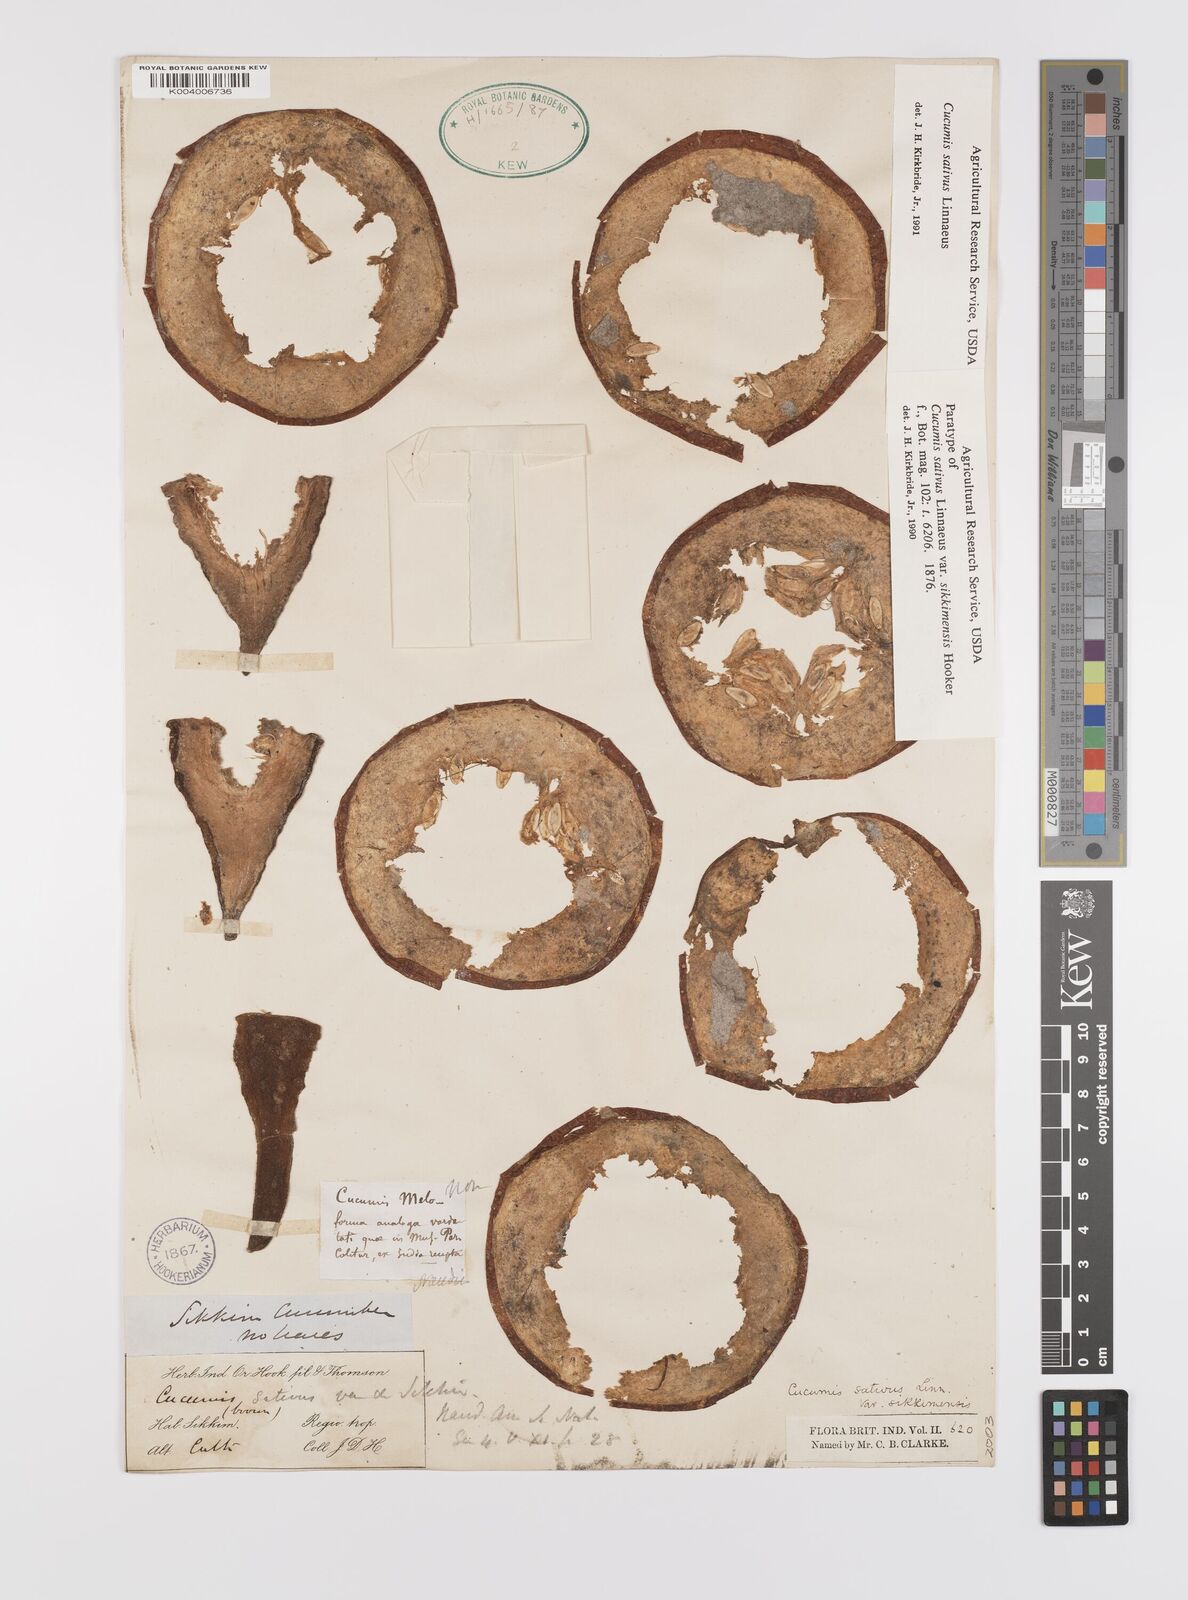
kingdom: Plantae
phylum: Tracheophyta
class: Magnoliopsida
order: Cucurbitales
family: Cucurbitaceae
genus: Cucumis
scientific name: Cucumis sativus
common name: Cucumber
